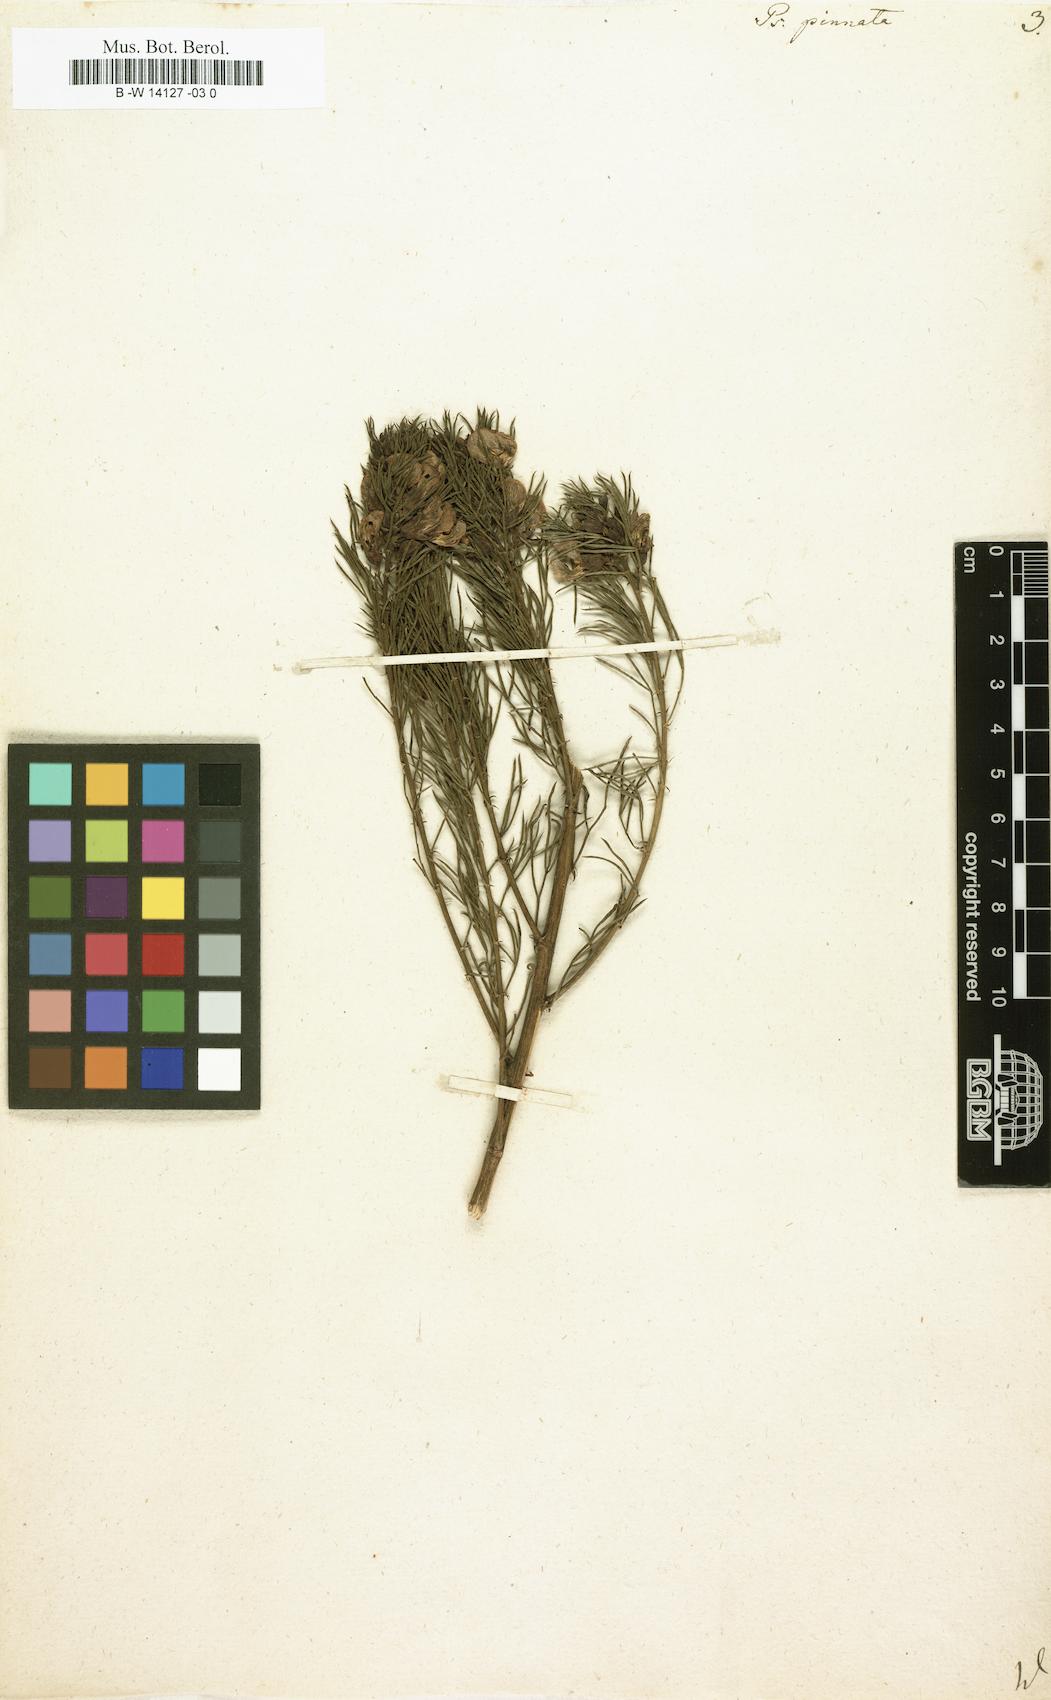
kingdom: Plantae
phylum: Tracheophyta
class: Magnoliopsida
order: Fabales
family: Fabaceae
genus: Psoralea
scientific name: Psoralea pinnata
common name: African scurfpea
